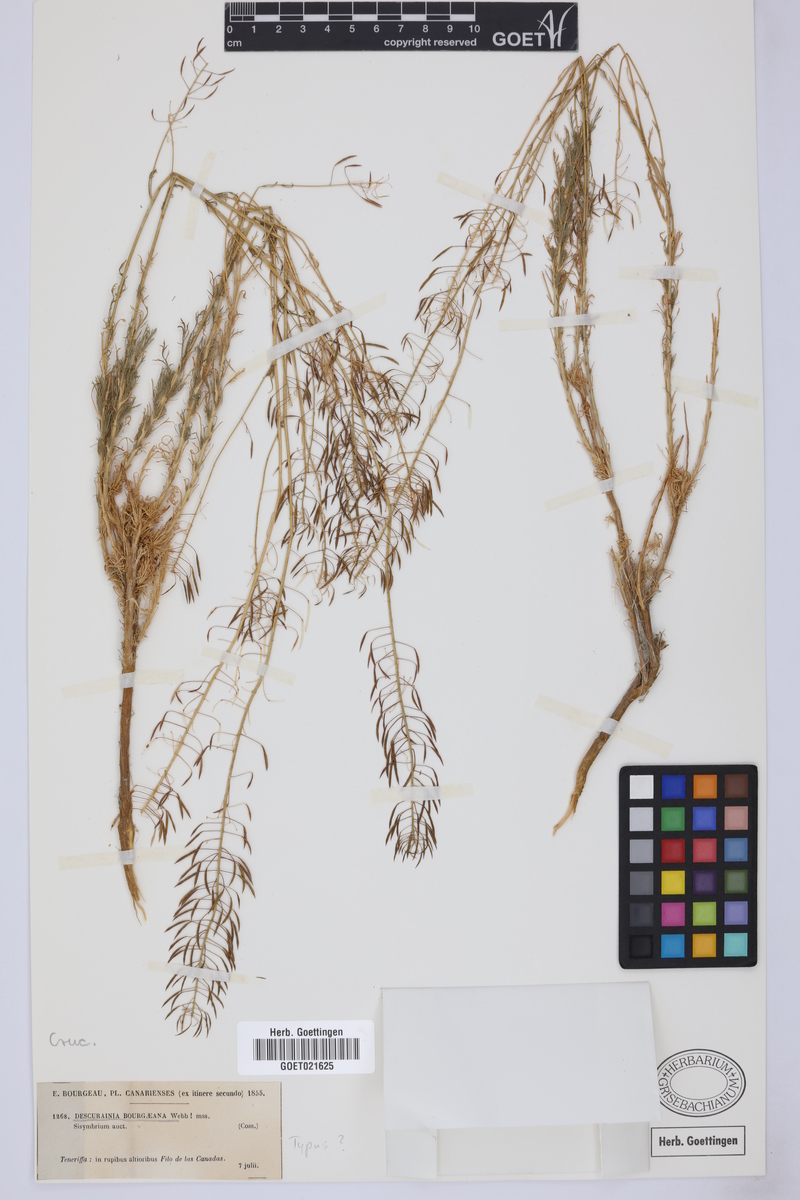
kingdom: Plantae
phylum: Tracheophyta
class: Magnoliopsida
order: Brassicales
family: Brassicaceae
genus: Descurainia
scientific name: Descurainia bourgaeana
